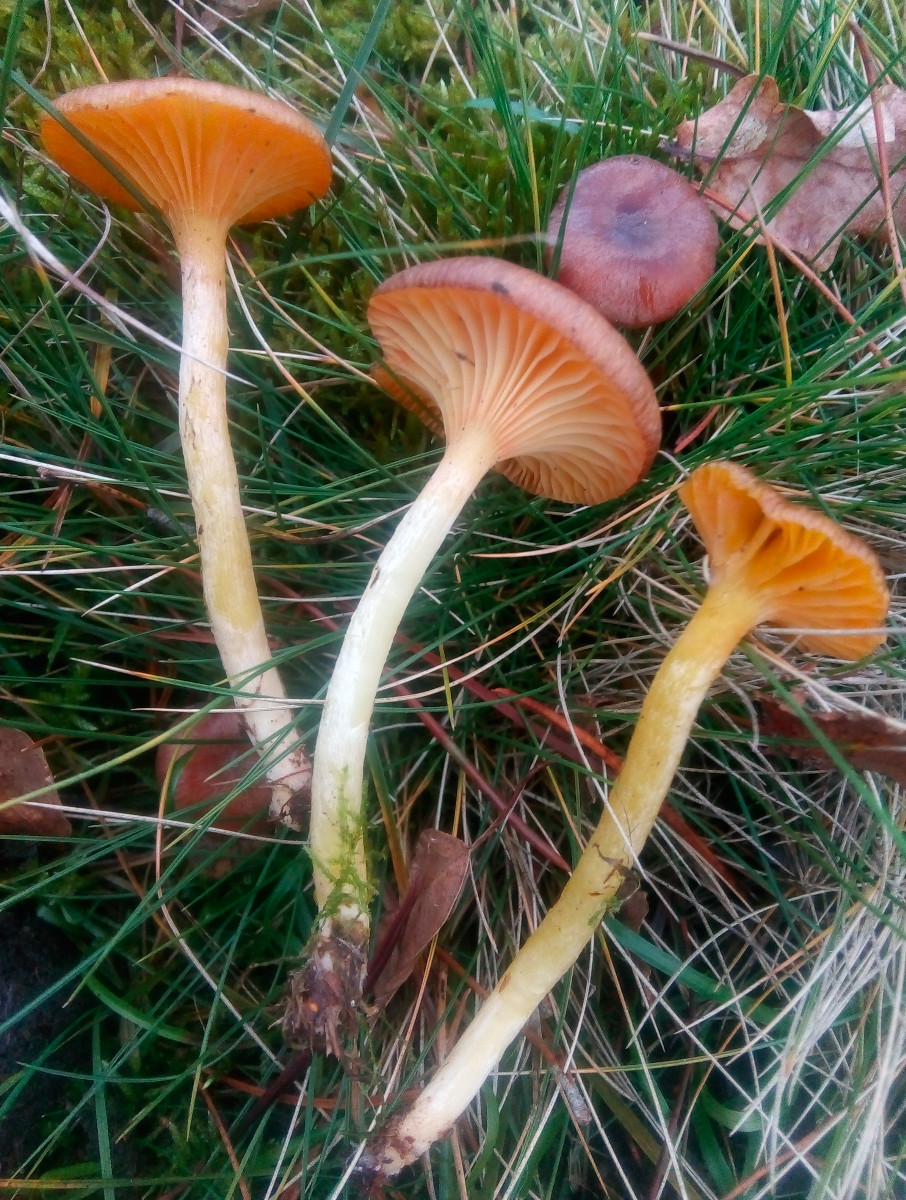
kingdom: Fungi
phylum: Basidiomycota
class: Agaricomycetes
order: Agaricales
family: Hygrophoraceae
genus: Hygrophorus
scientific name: Hygrophorus hypothejus
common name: frost-sneglehat
